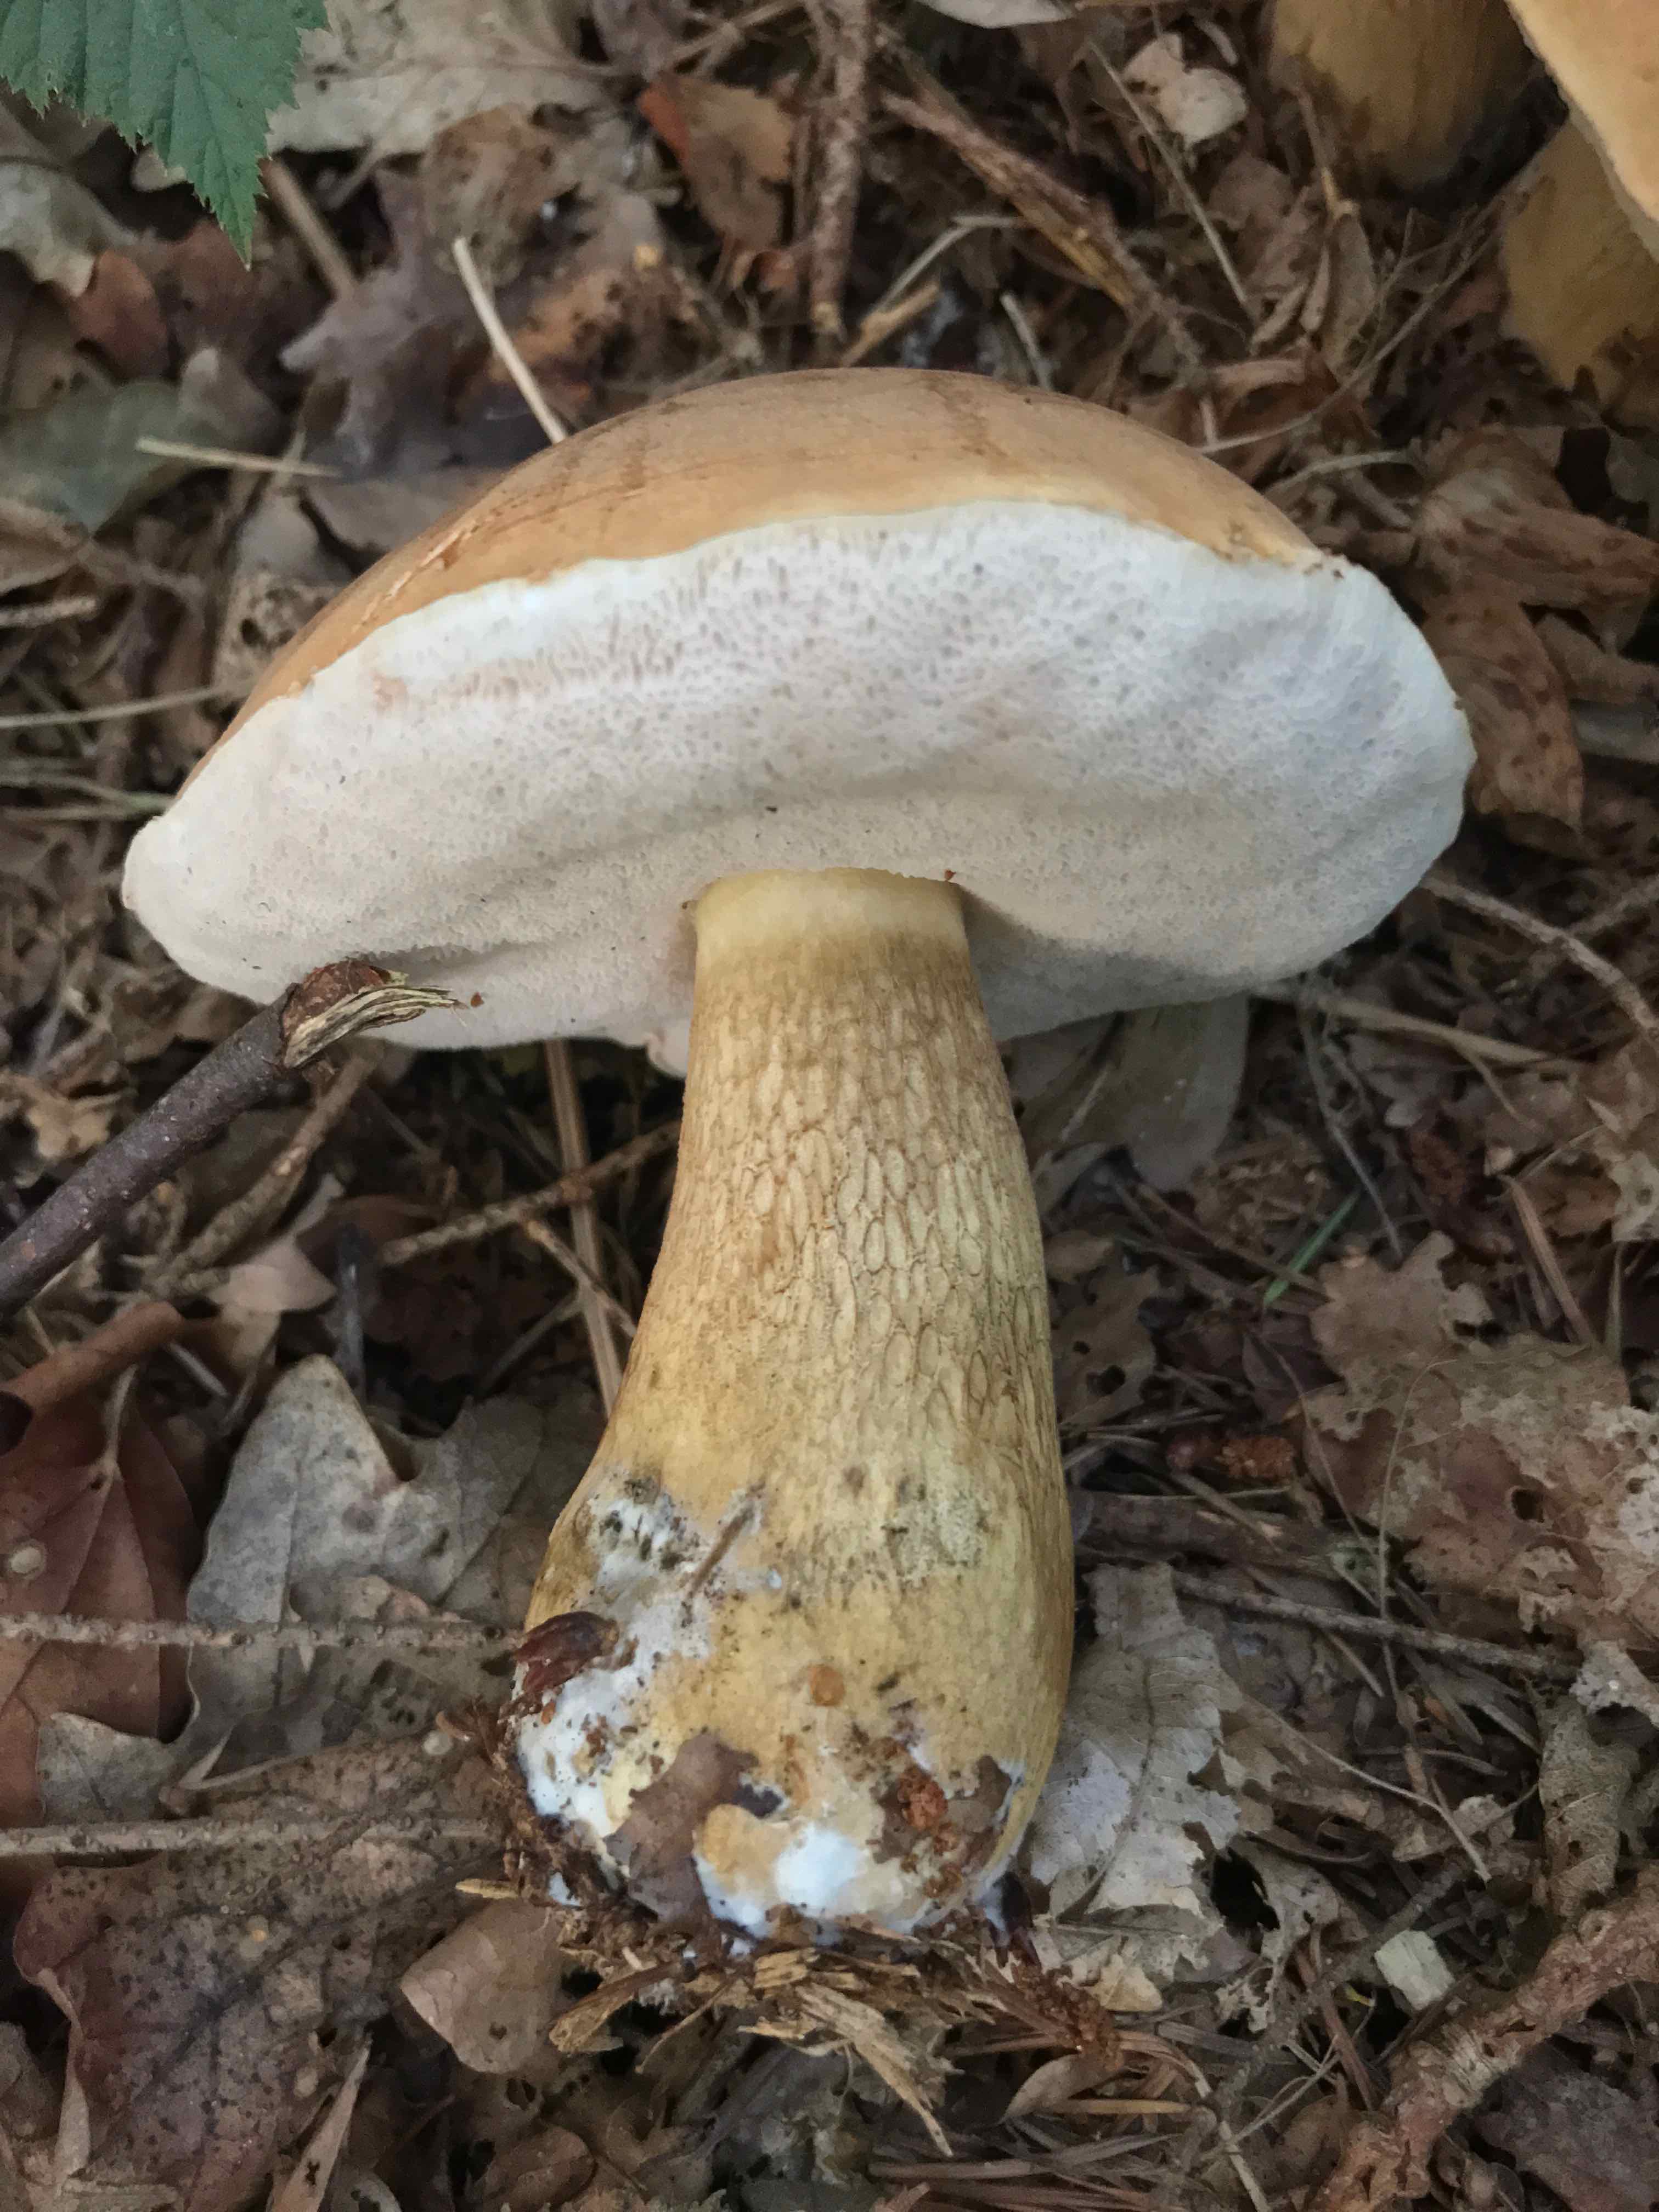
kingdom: Fungi
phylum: Basidiomycota
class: Agaricomycetes
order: Boletales
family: Boletaceae
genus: Tylopilus
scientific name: Tylopilus felleus
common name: galderørhat
